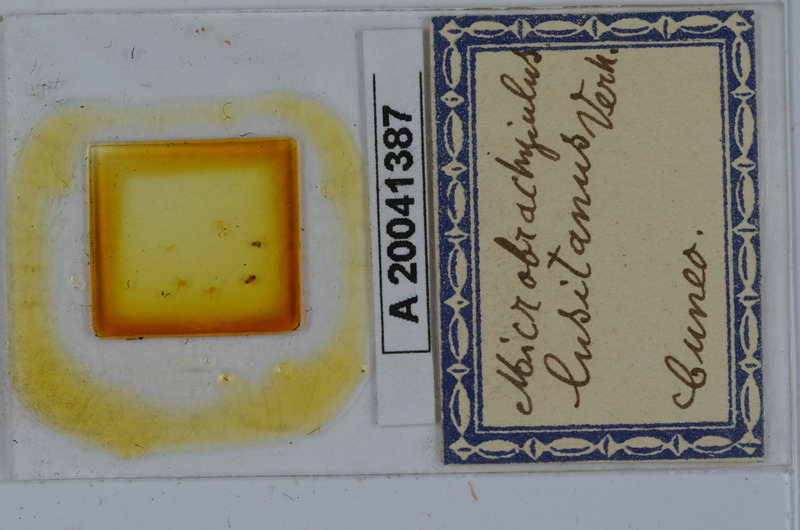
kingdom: Animalia
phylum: Arthropoda
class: Diplopoda
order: Julida
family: Julidae
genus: Brachyiulus
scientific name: Brachyiulus lusitanus
